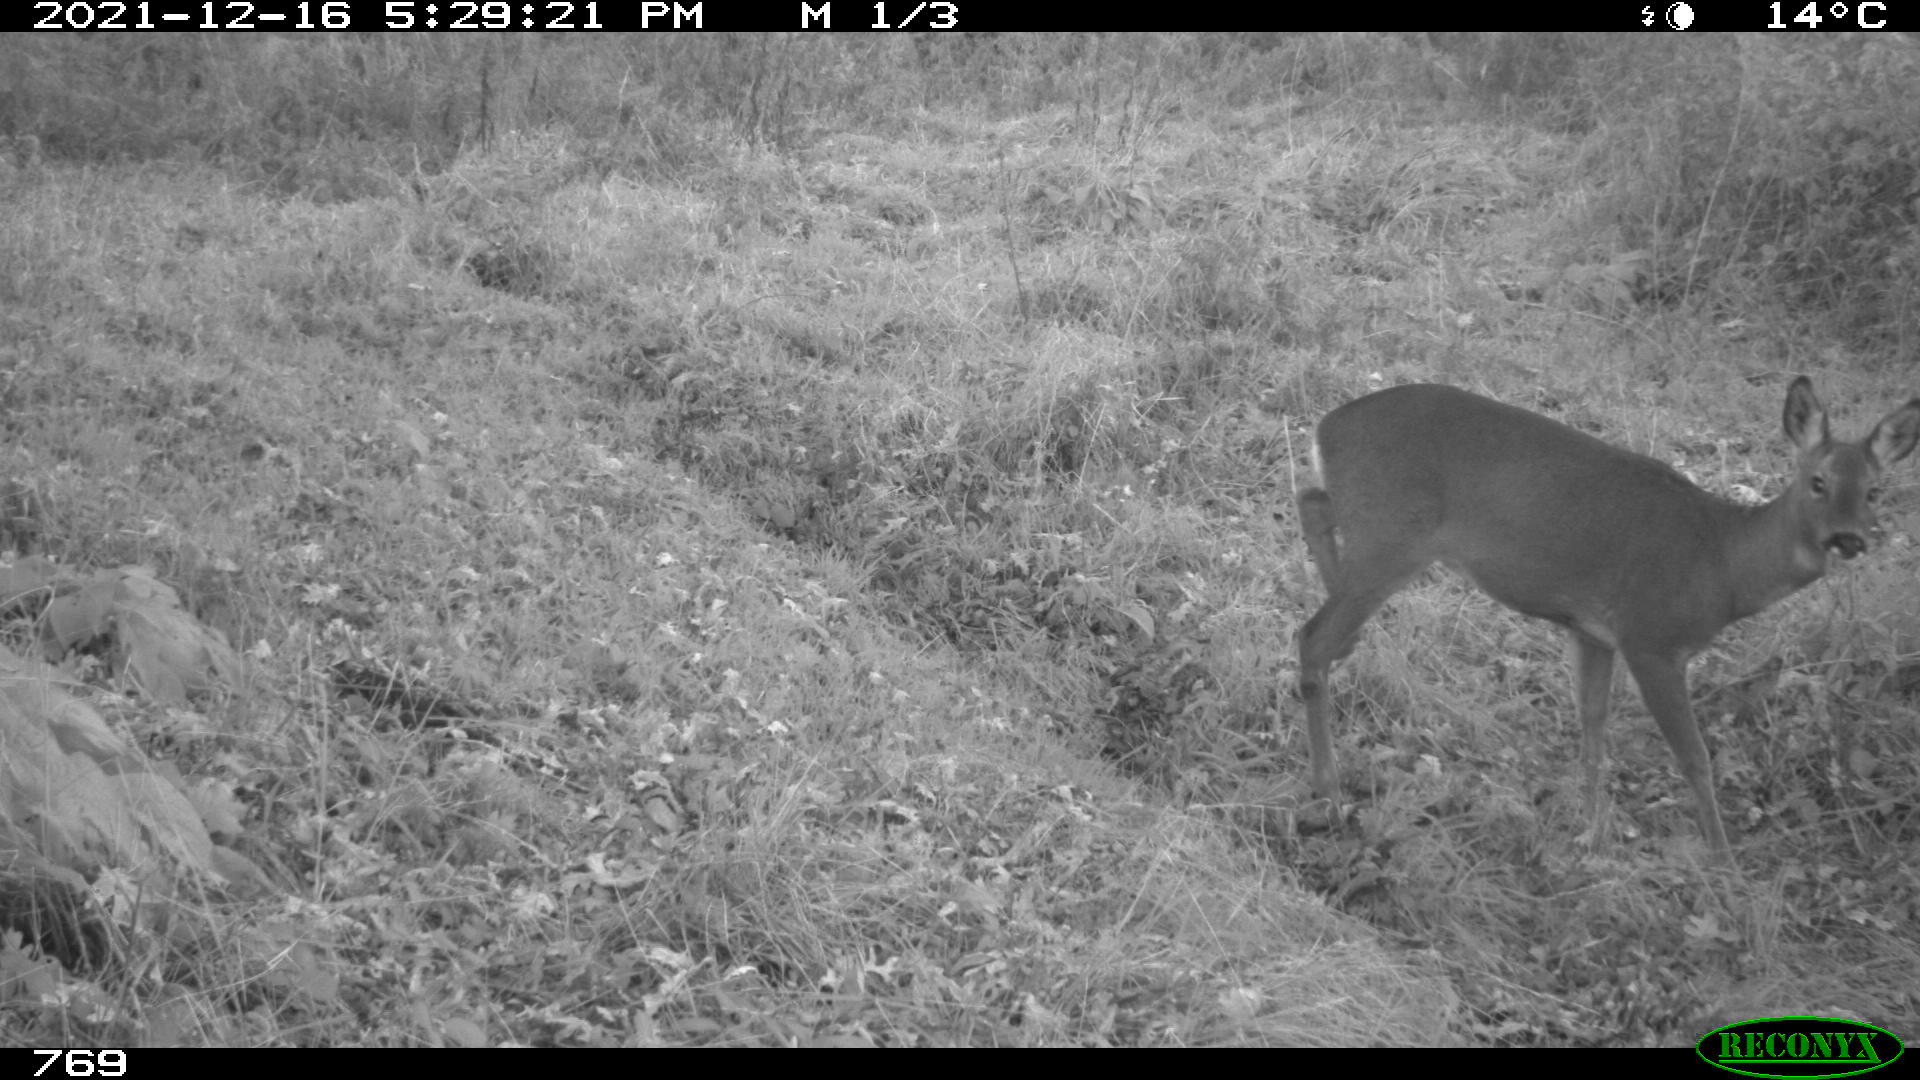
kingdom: Animalia
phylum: Chordata
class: Mammalia
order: Artiodactyla
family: Cervidae
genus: Capreolus
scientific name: Capreolus capreolus
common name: Western roe deer
